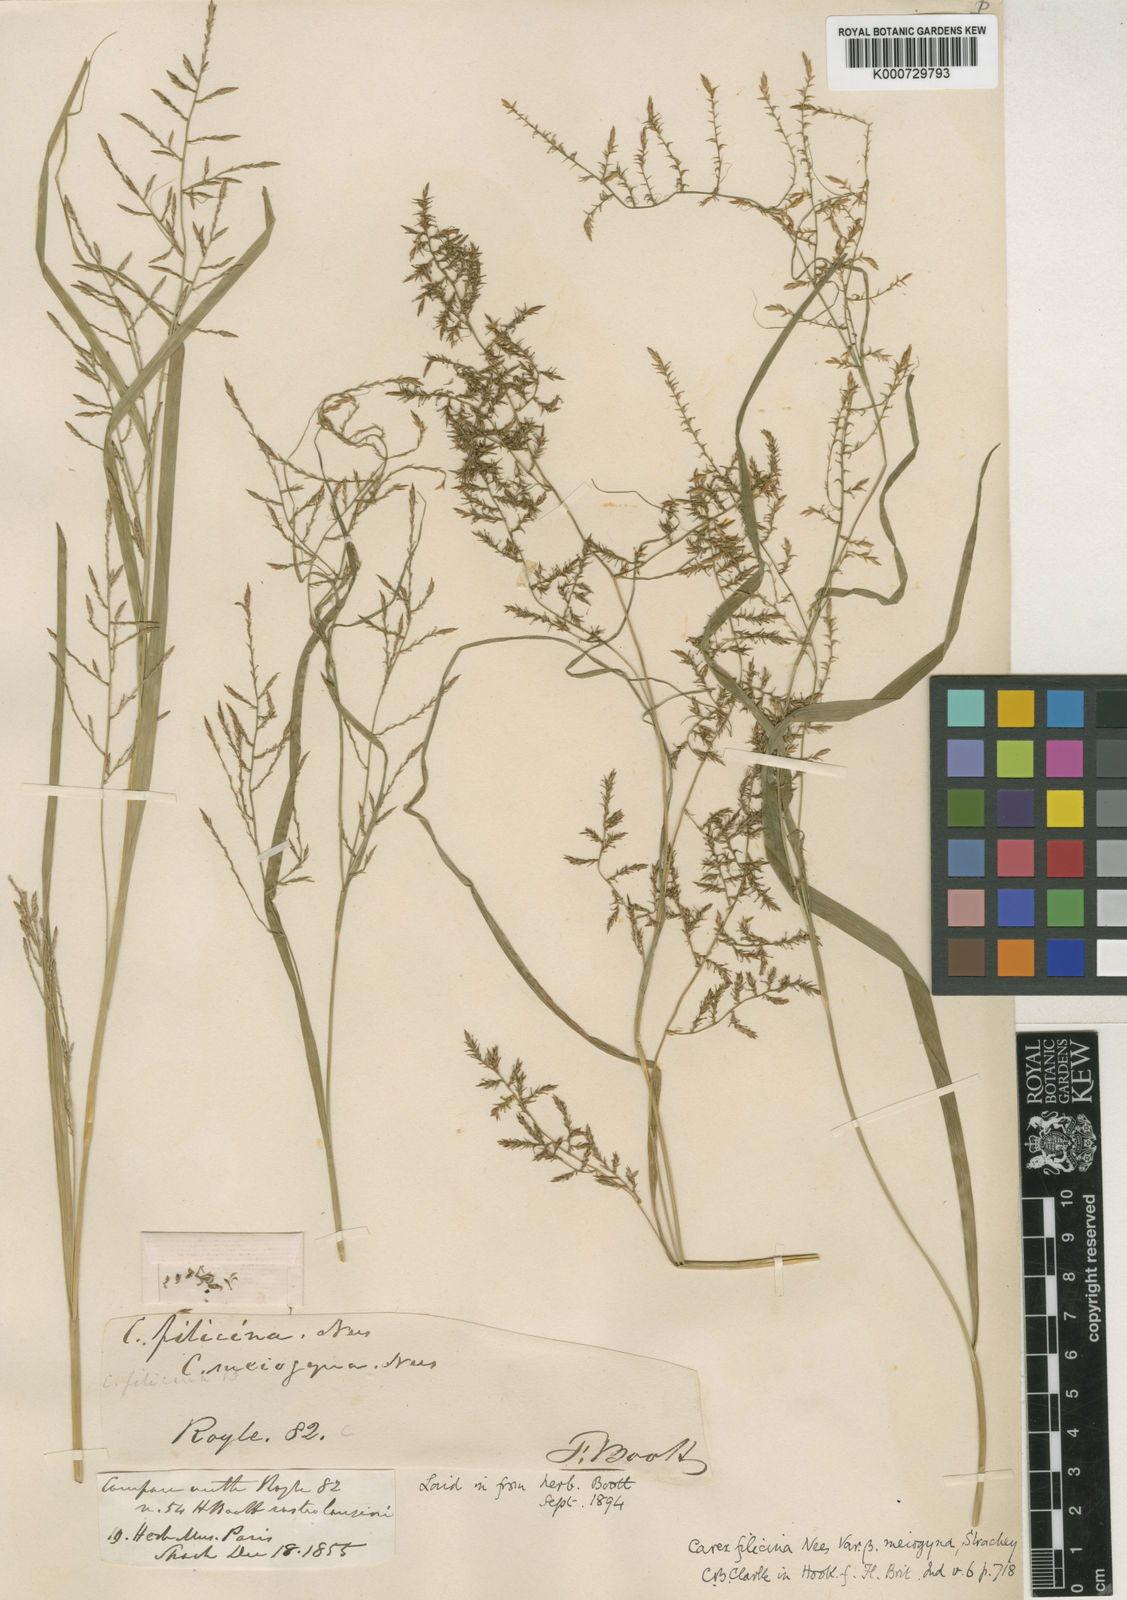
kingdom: Plantae
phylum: Tracheophyta
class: Liliopsida
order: Poales
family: Cyperaceae
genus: Carex
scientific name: Carex filicina
